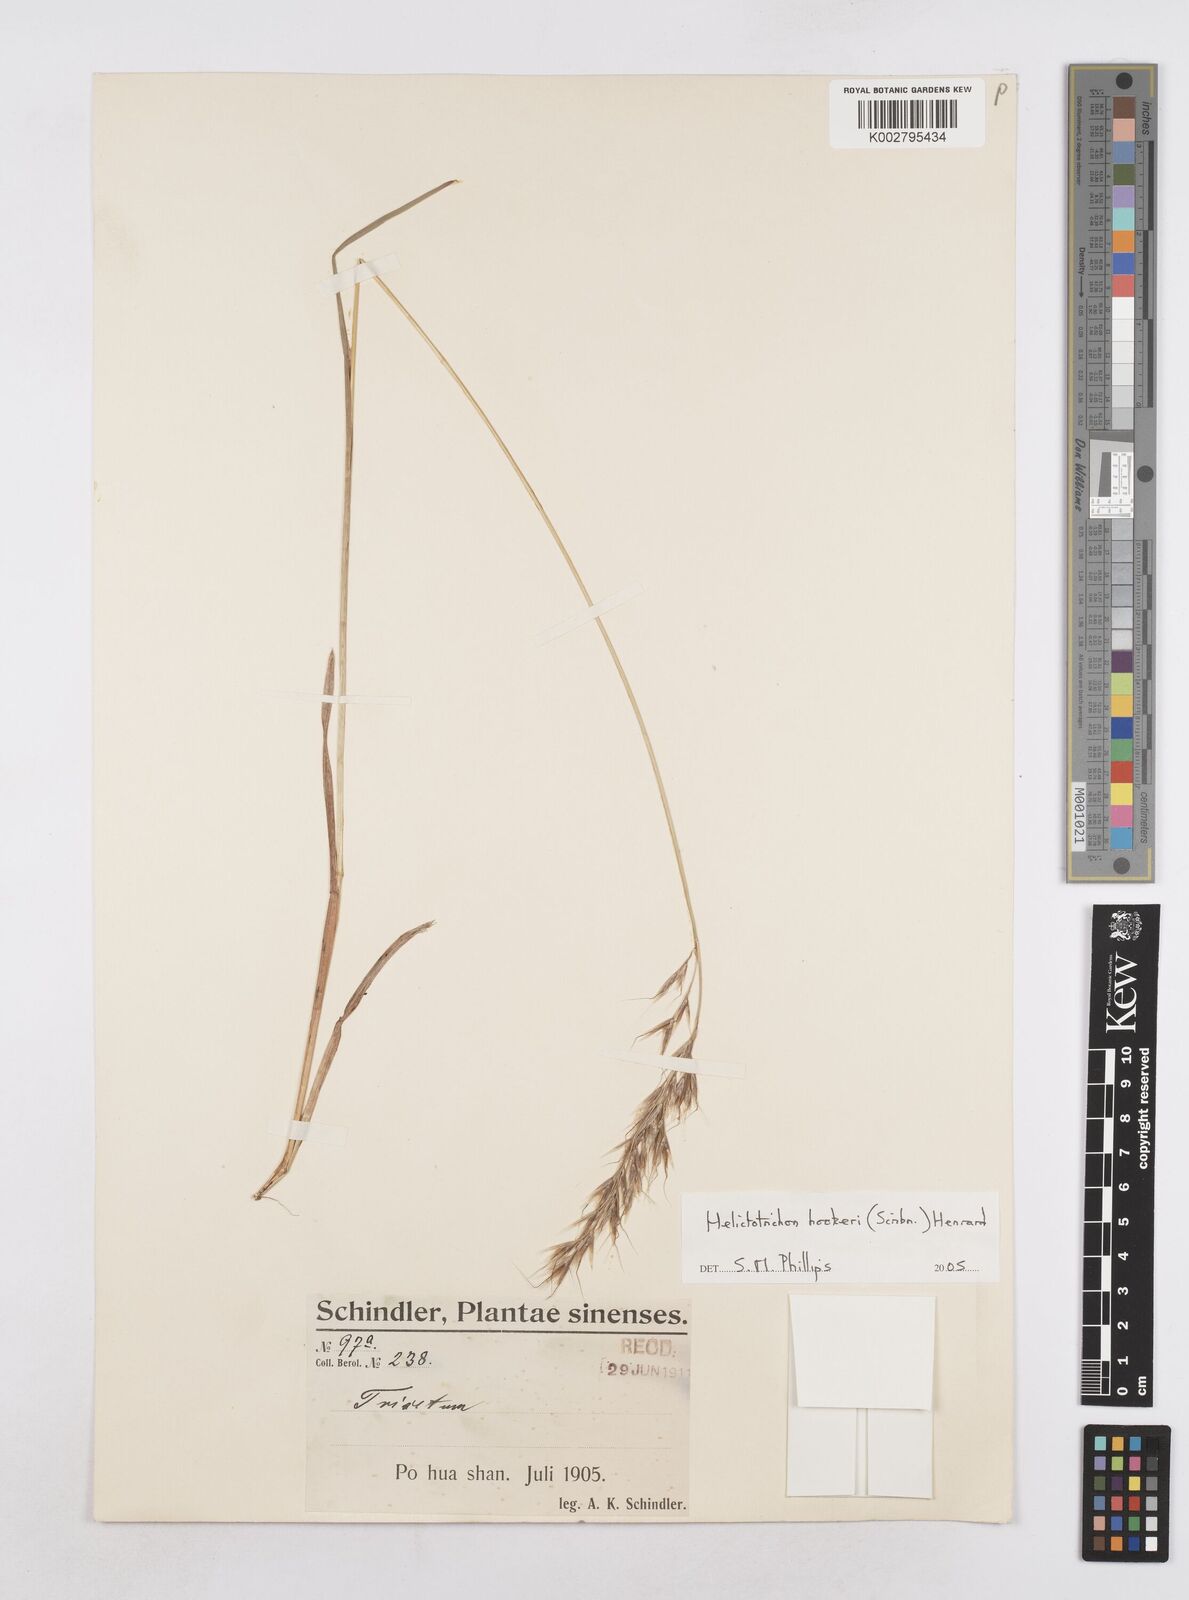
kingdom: Plantae
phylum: Tracheophyta
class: Liliopsida
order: Poales
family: Poaceae
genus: Helictochloa
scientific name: Helictochloa hookeri
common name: Hooker's alpine oatgrass
